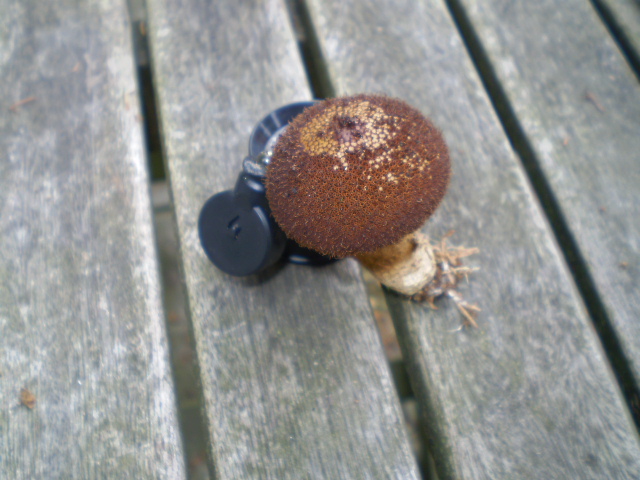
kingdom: Fungi
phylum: Basidiomycota
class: Agaricomycetes
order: Agaricales
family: Lycoperdaceae
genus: Lycoperdon
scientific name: Lycoperdon nigrescens
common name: sortagtig støvbold
